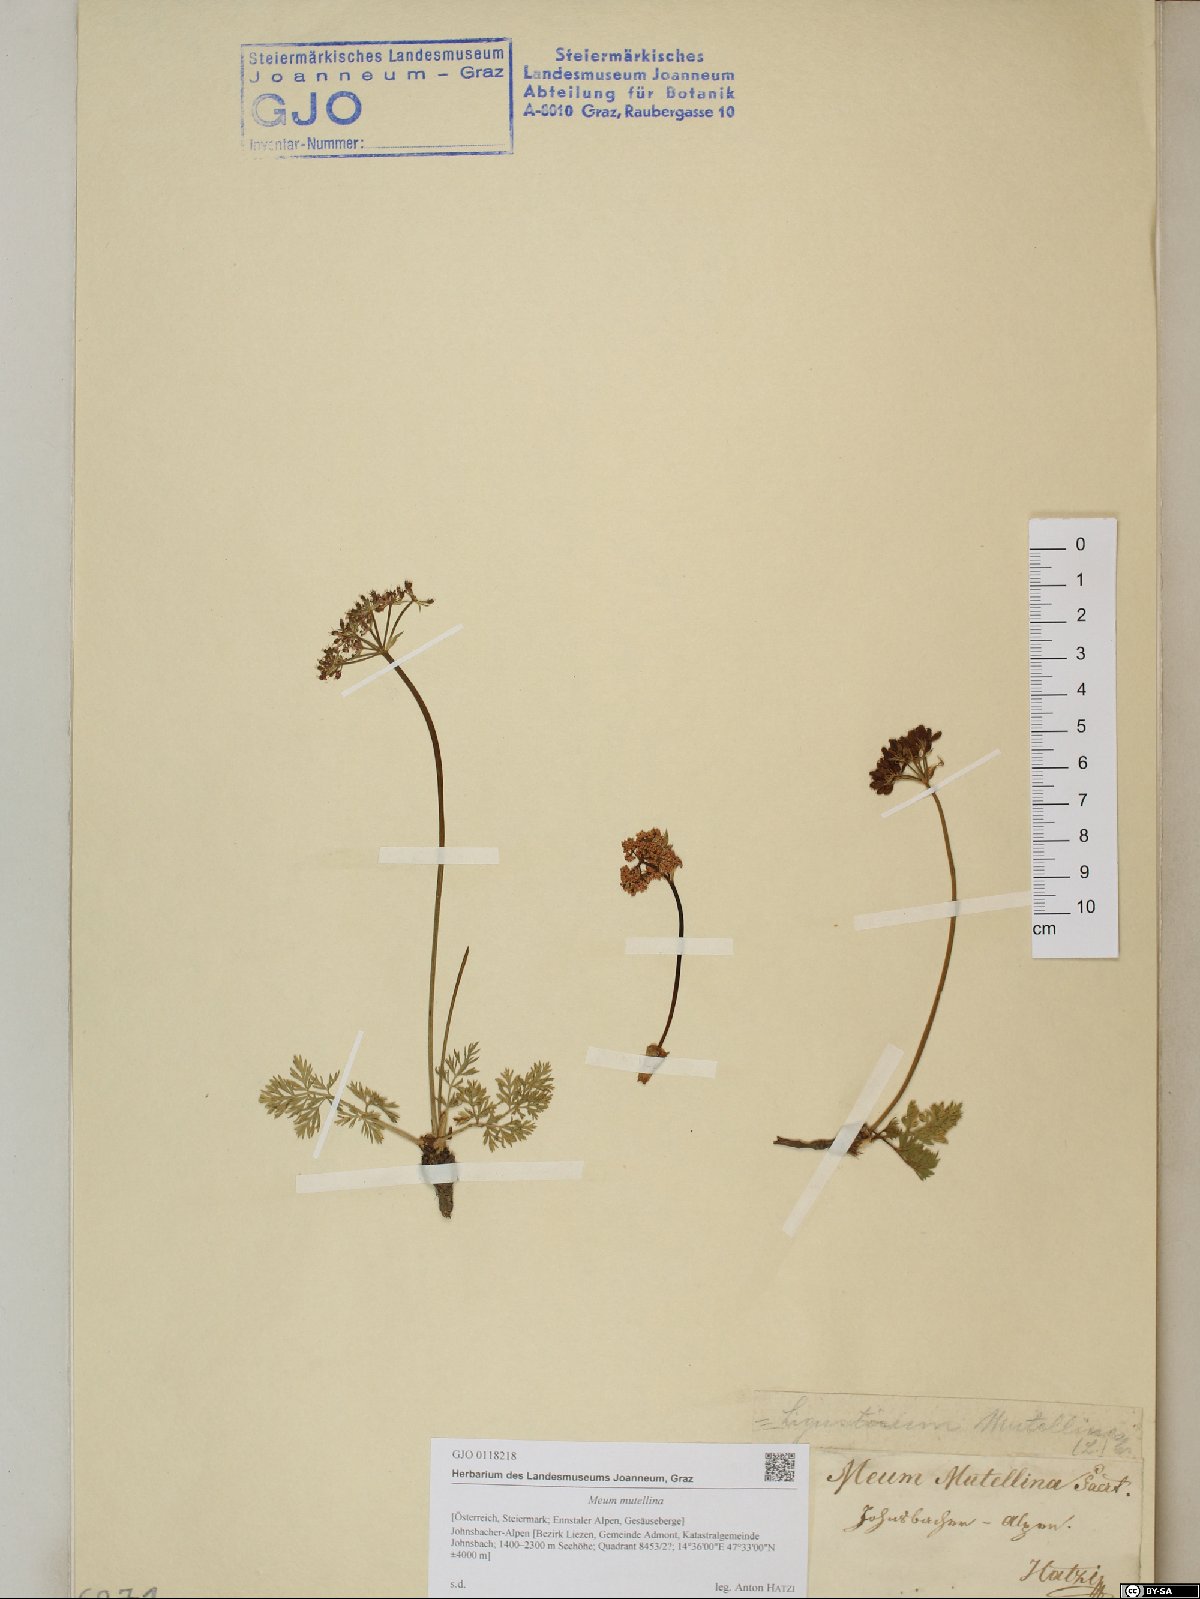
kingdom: Plantae
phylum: Tracheophyta
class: Magnoliopsida
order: Apiales
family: Apiaceae
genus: Mutellina
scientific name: Mutellina adonidifolia
